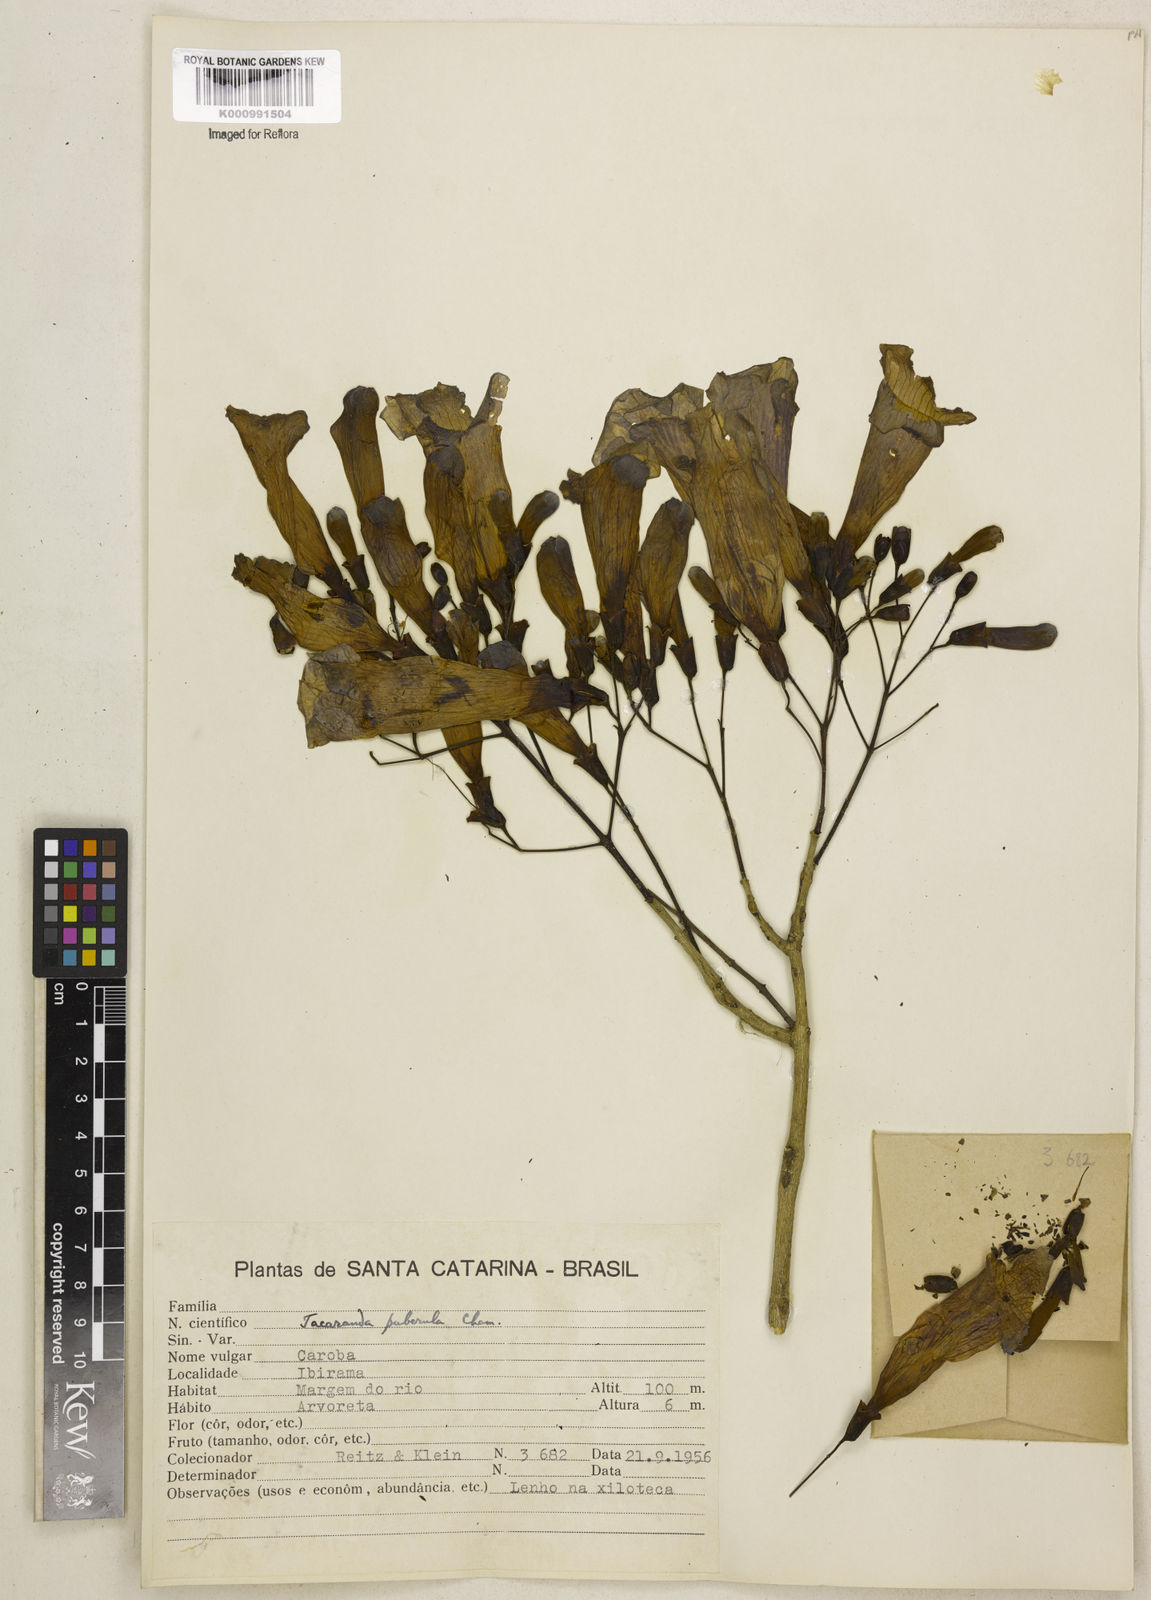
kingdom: Plantae
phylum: Tracheophyta
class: Magnoliopsida
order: Lamiales
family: Bignoniaceae
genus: Jacaranda
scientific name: Jacaranda puberula
